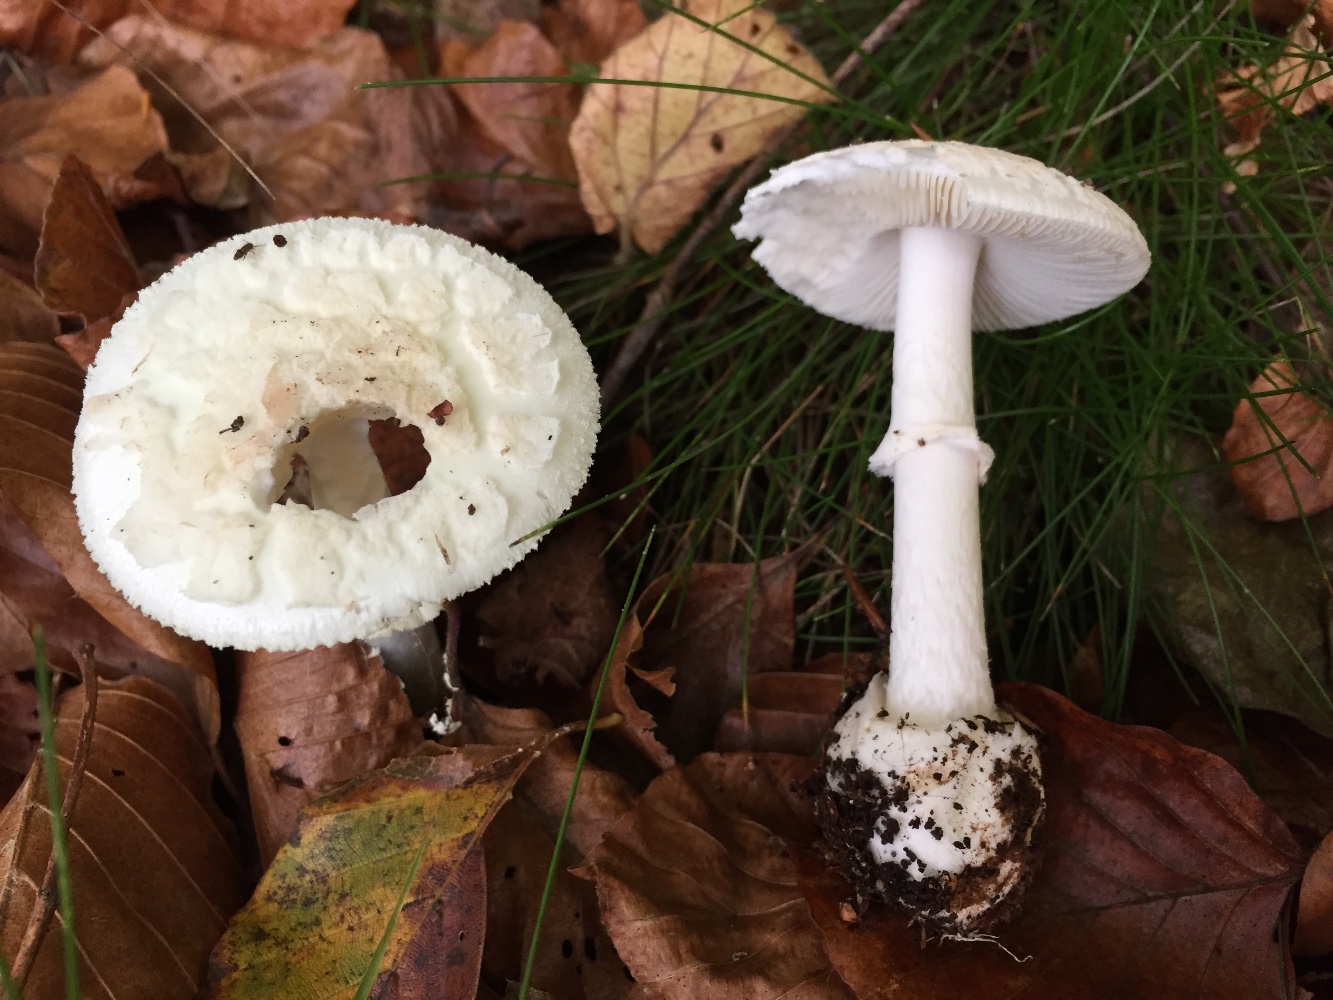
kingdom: Fungi
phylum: Basidiomycota
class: Agaricomycetes
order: Agaricales
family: Amanitaceae
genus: Amanita
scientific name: Amanita citrina
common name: kugleknoldet fluesvamp
